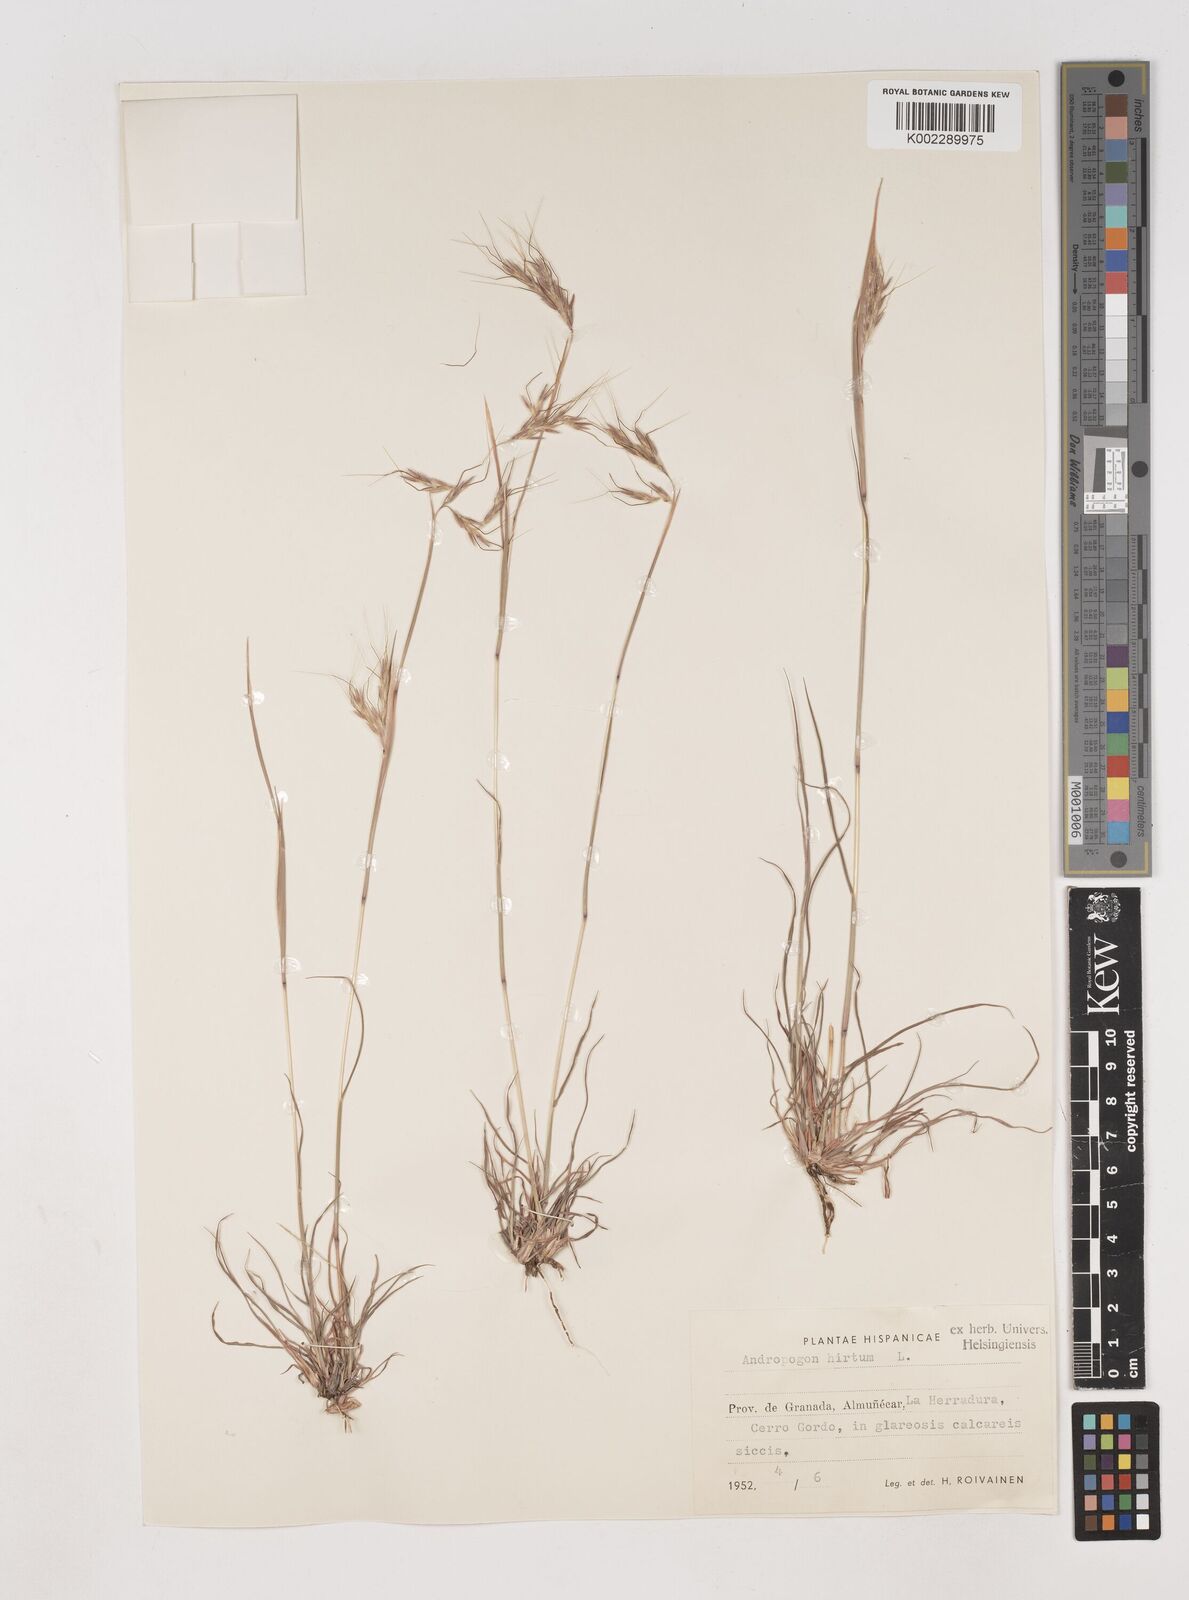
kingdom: Plantae
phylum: Tracheophyta
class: Liliopsida
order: Poales
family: Poaceae
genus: Hyparrhenia
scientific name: Hyparrhenia hirta
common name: Thatching grass
